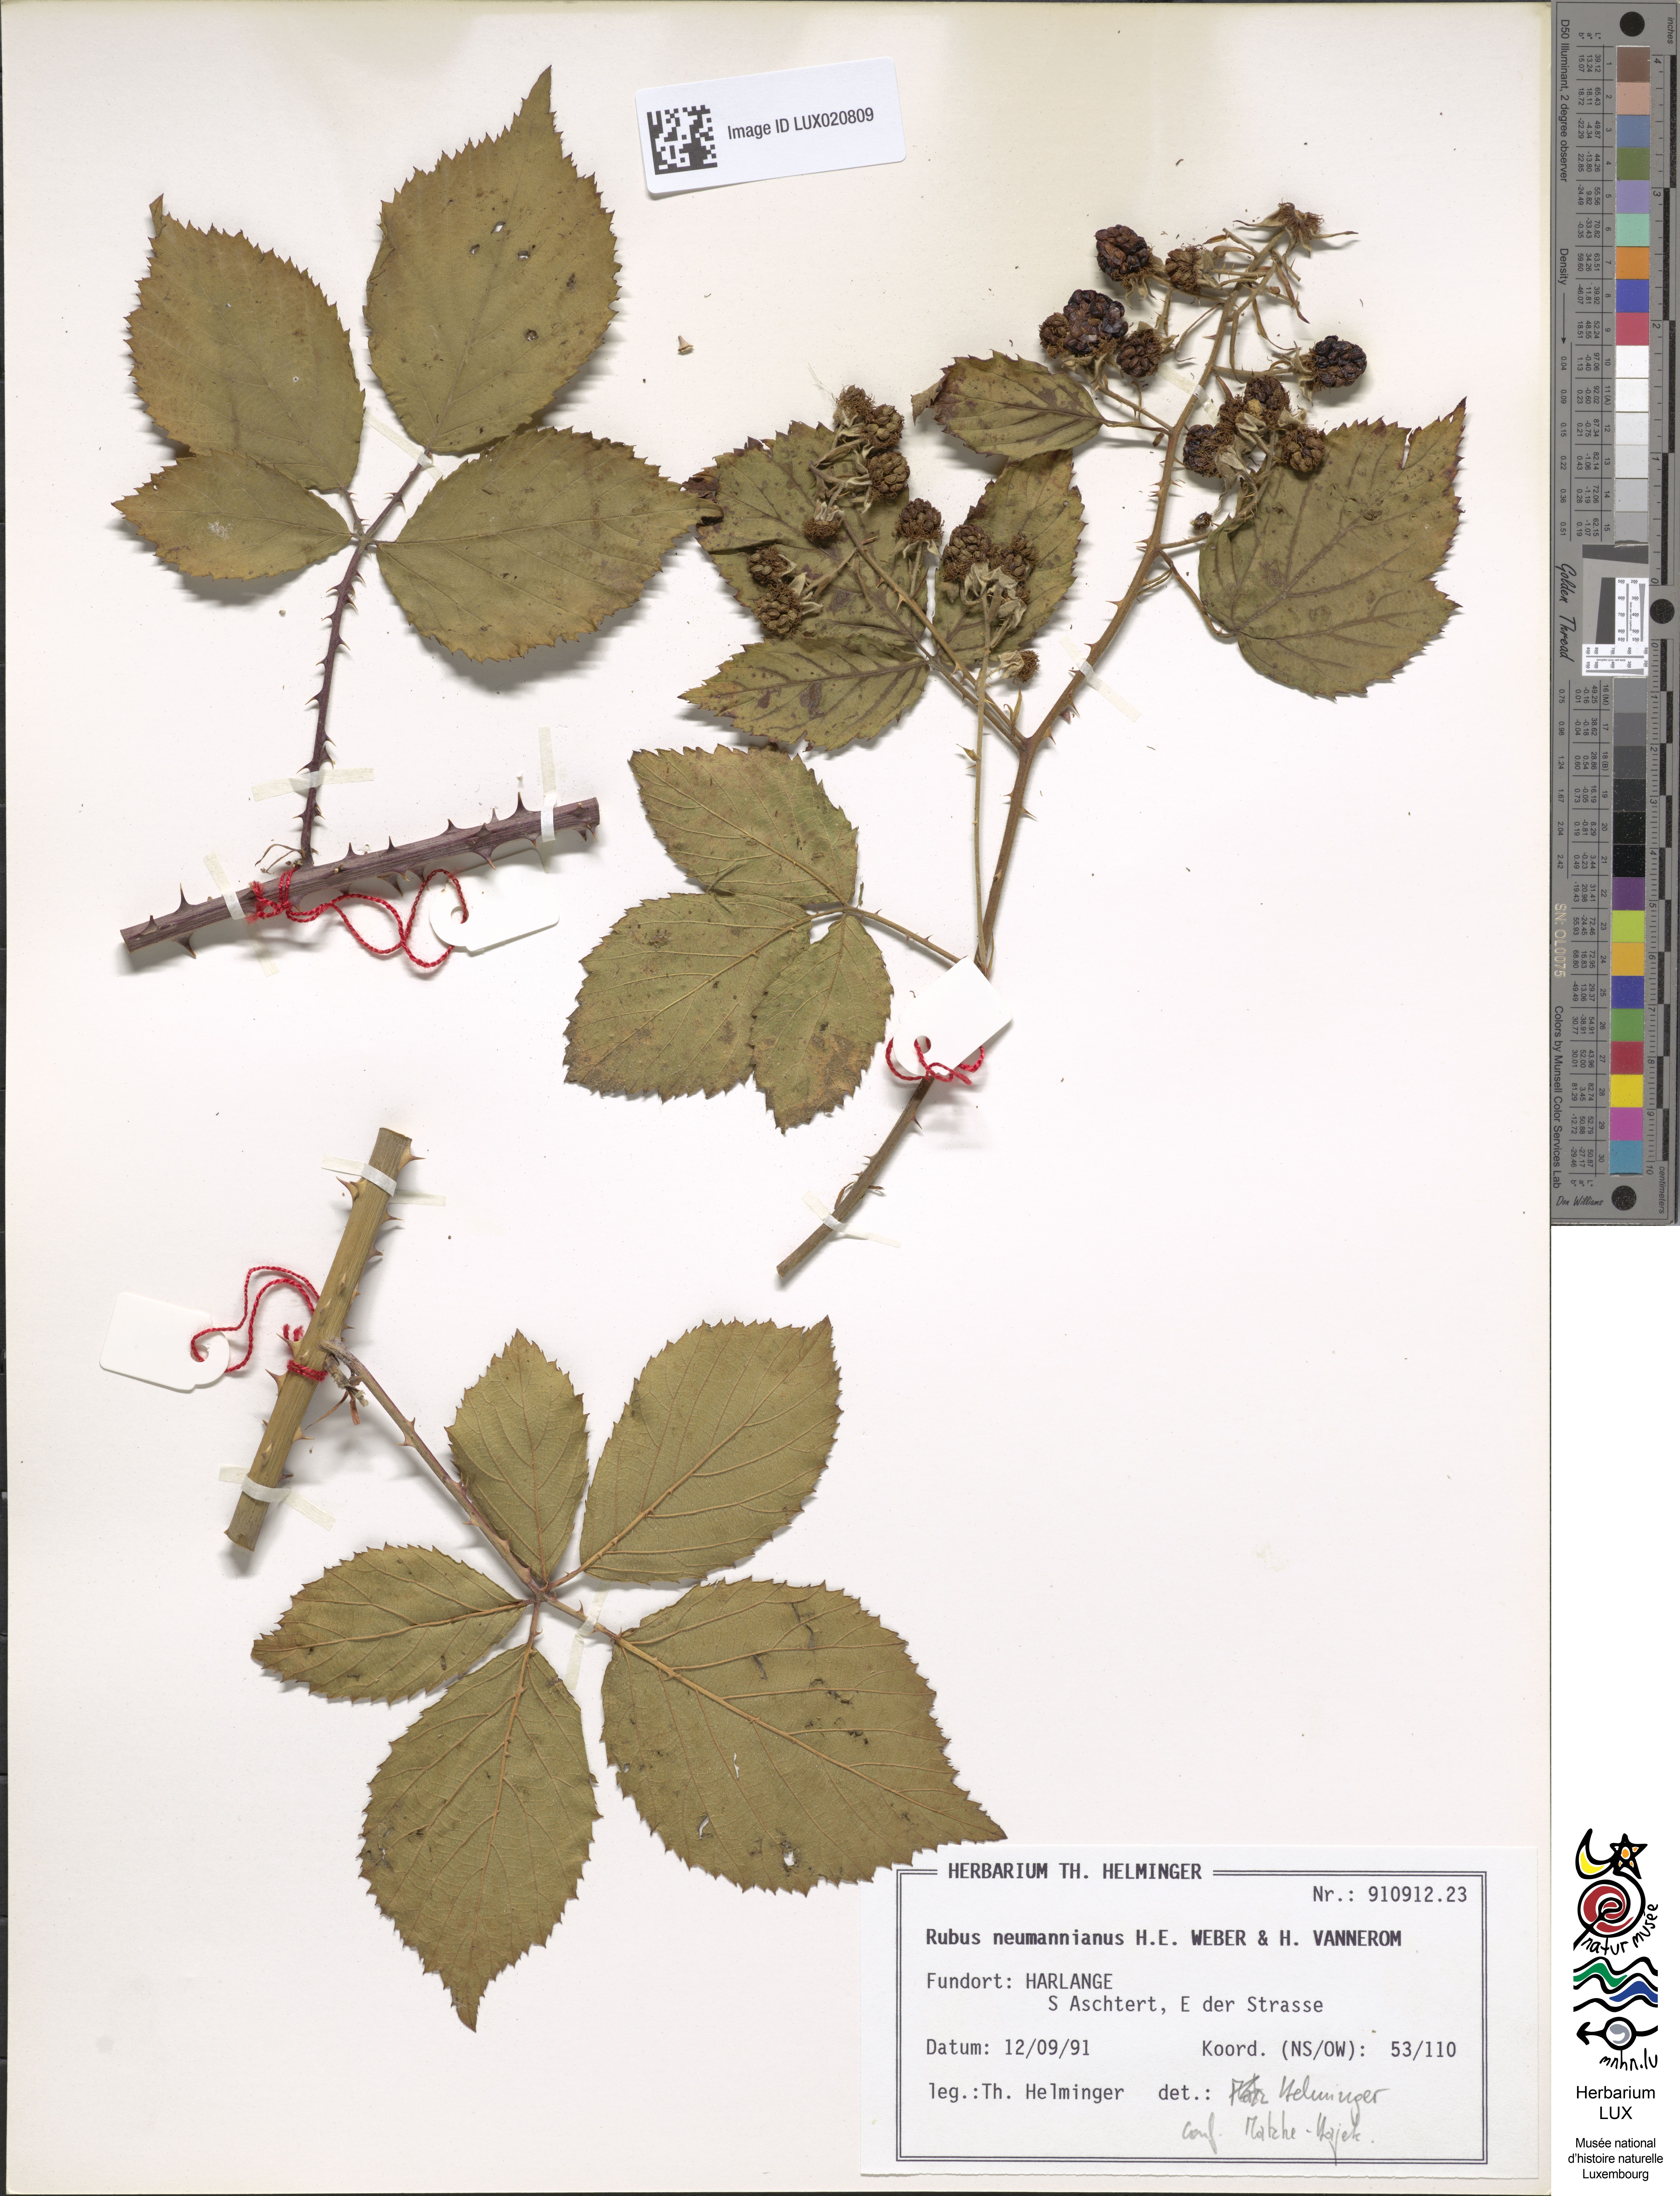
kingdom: Plantae
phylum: Tracheophyta
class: Magnoliopsida
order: Rosales
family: Rosaceae
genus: Rubus
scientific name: Rubus favonii
